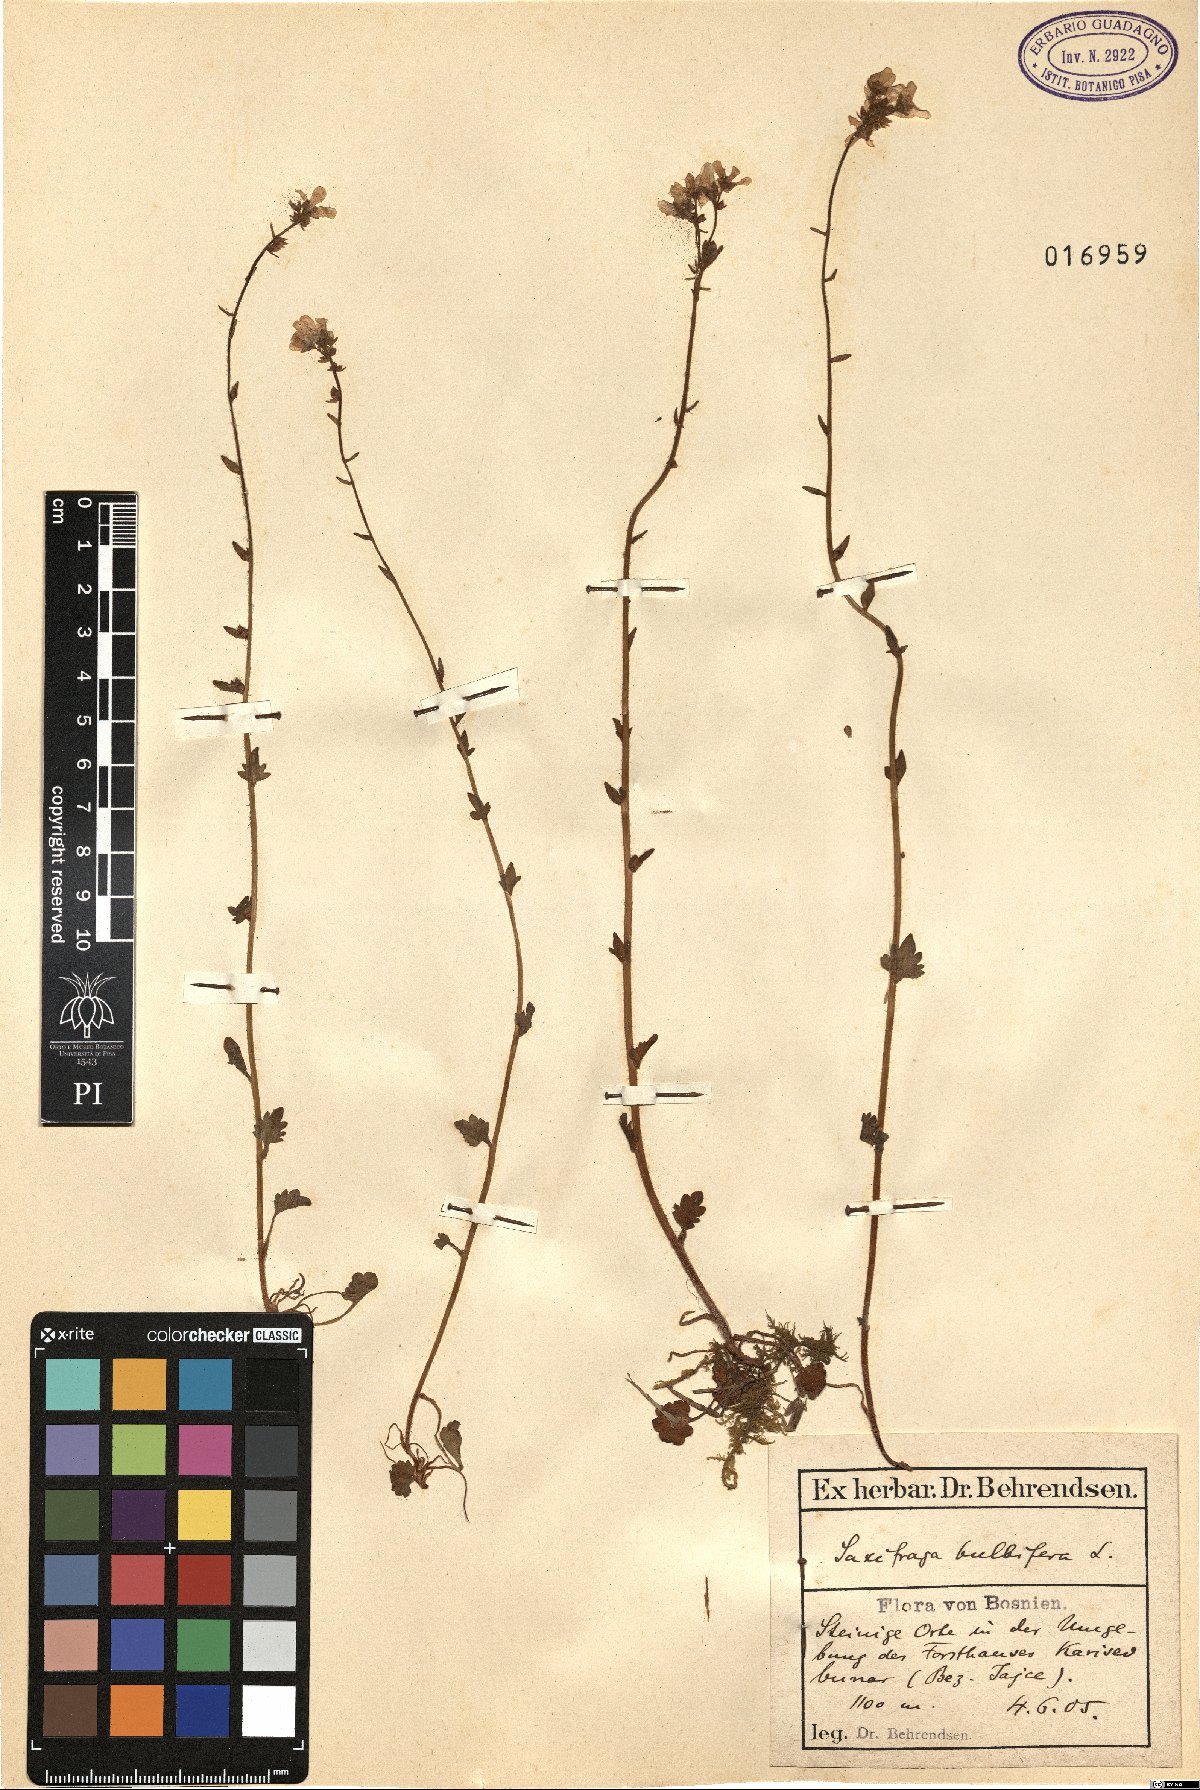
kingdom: Plantae
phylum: Tracheophyta
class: Magnoliopsida
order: Saxifragales
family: Saxifragaceae
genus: Saxifraga
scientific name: Saxifraga bulbifera
